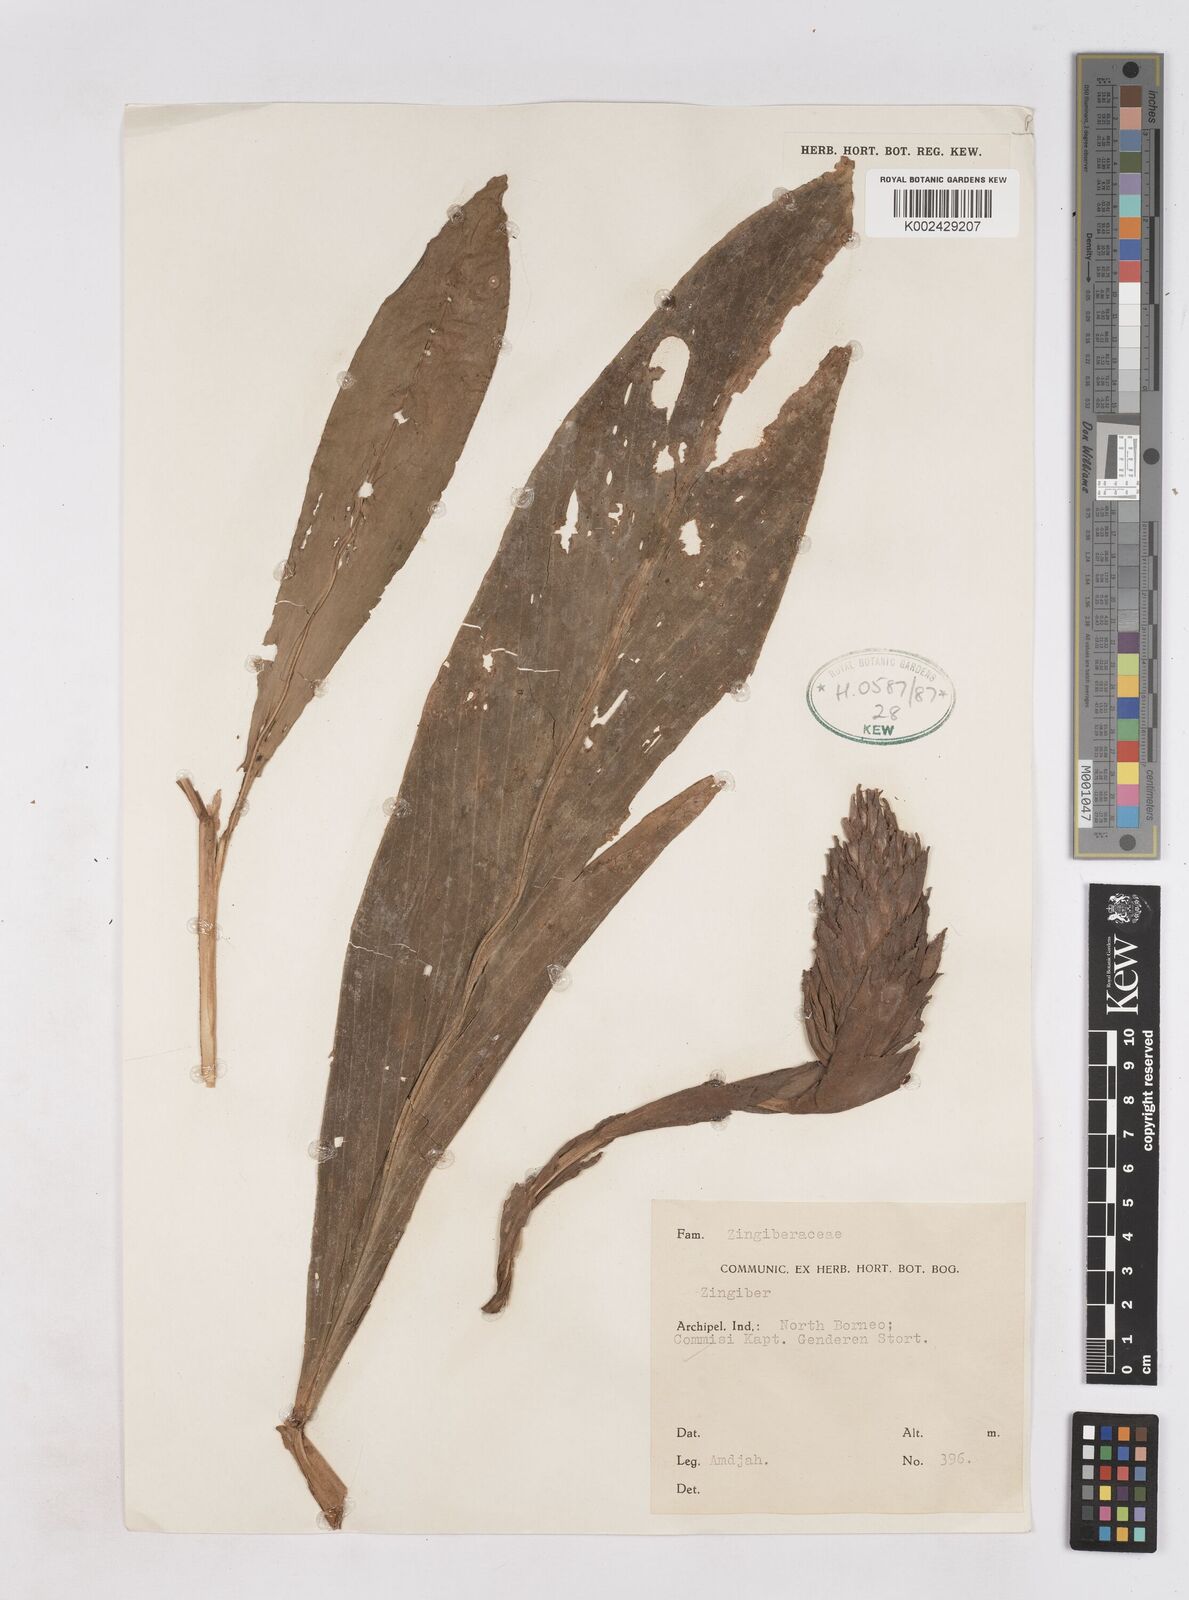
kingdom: Plantae
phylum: Tracheophyta
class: Liliopsida
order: Zingiberales
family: Zingiberaceae
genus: Zingiber
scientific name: Zingiber
